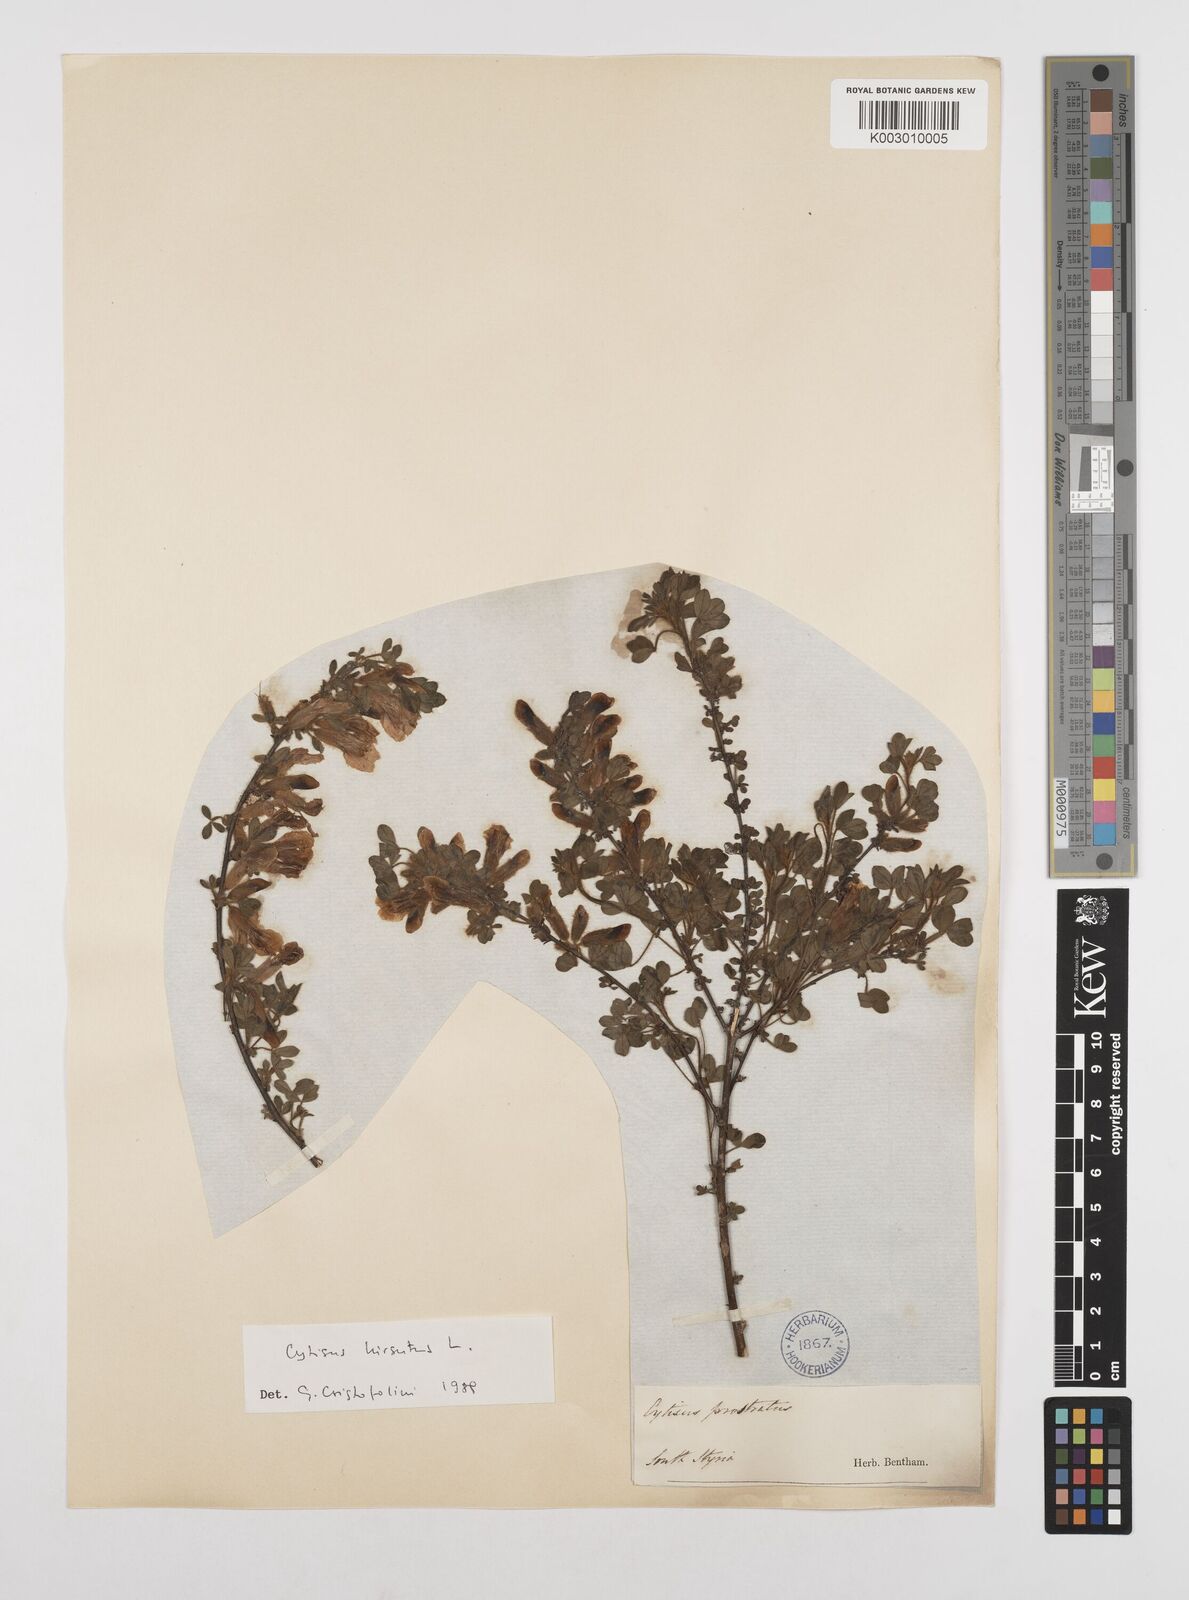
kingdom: Plantae
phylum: Tracheophyta
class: Magnoliopsida
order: Fabales
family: Fabaceae
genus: Chamaecytisus
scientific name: Chamaecytisus hirsutus
